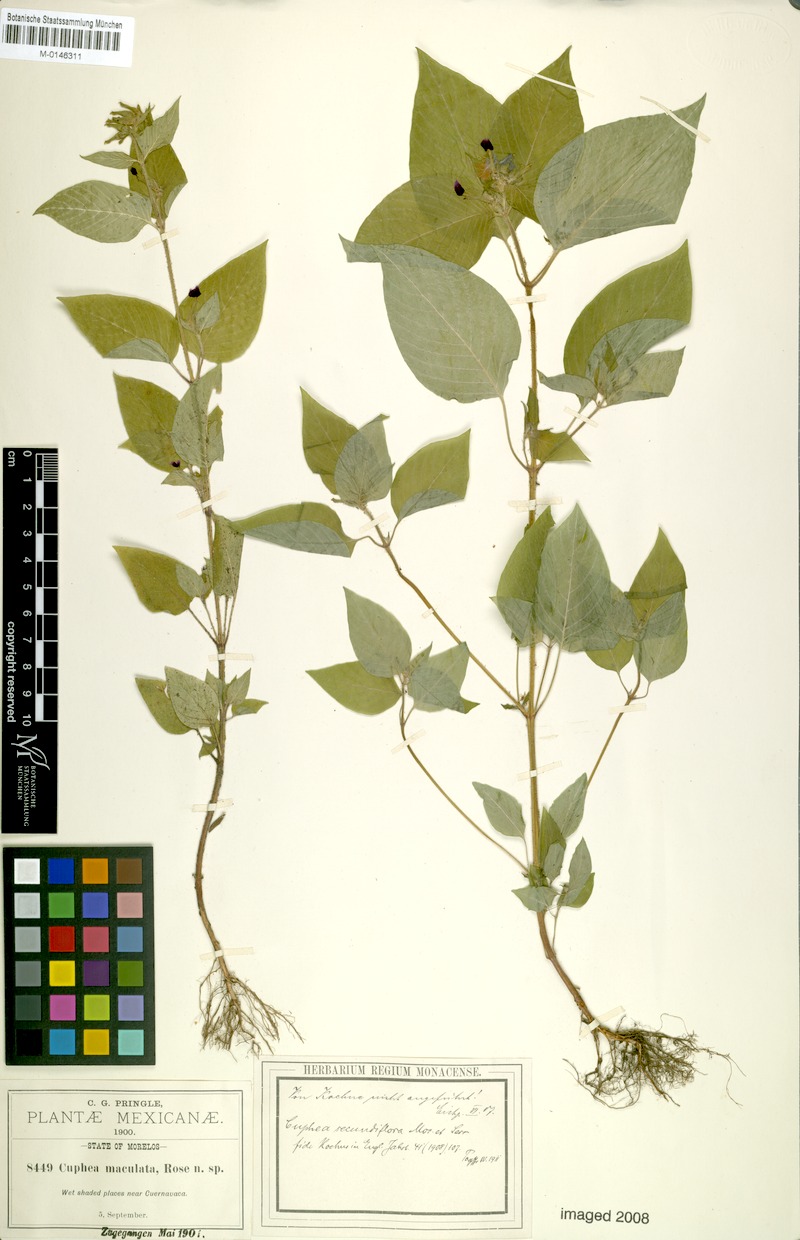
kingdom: Plantae
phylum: Tracheophyta
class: Magnoliopsida
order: Myrtales
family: Lythraceae
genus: Cuphea
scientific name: Cuphea secundiflora
